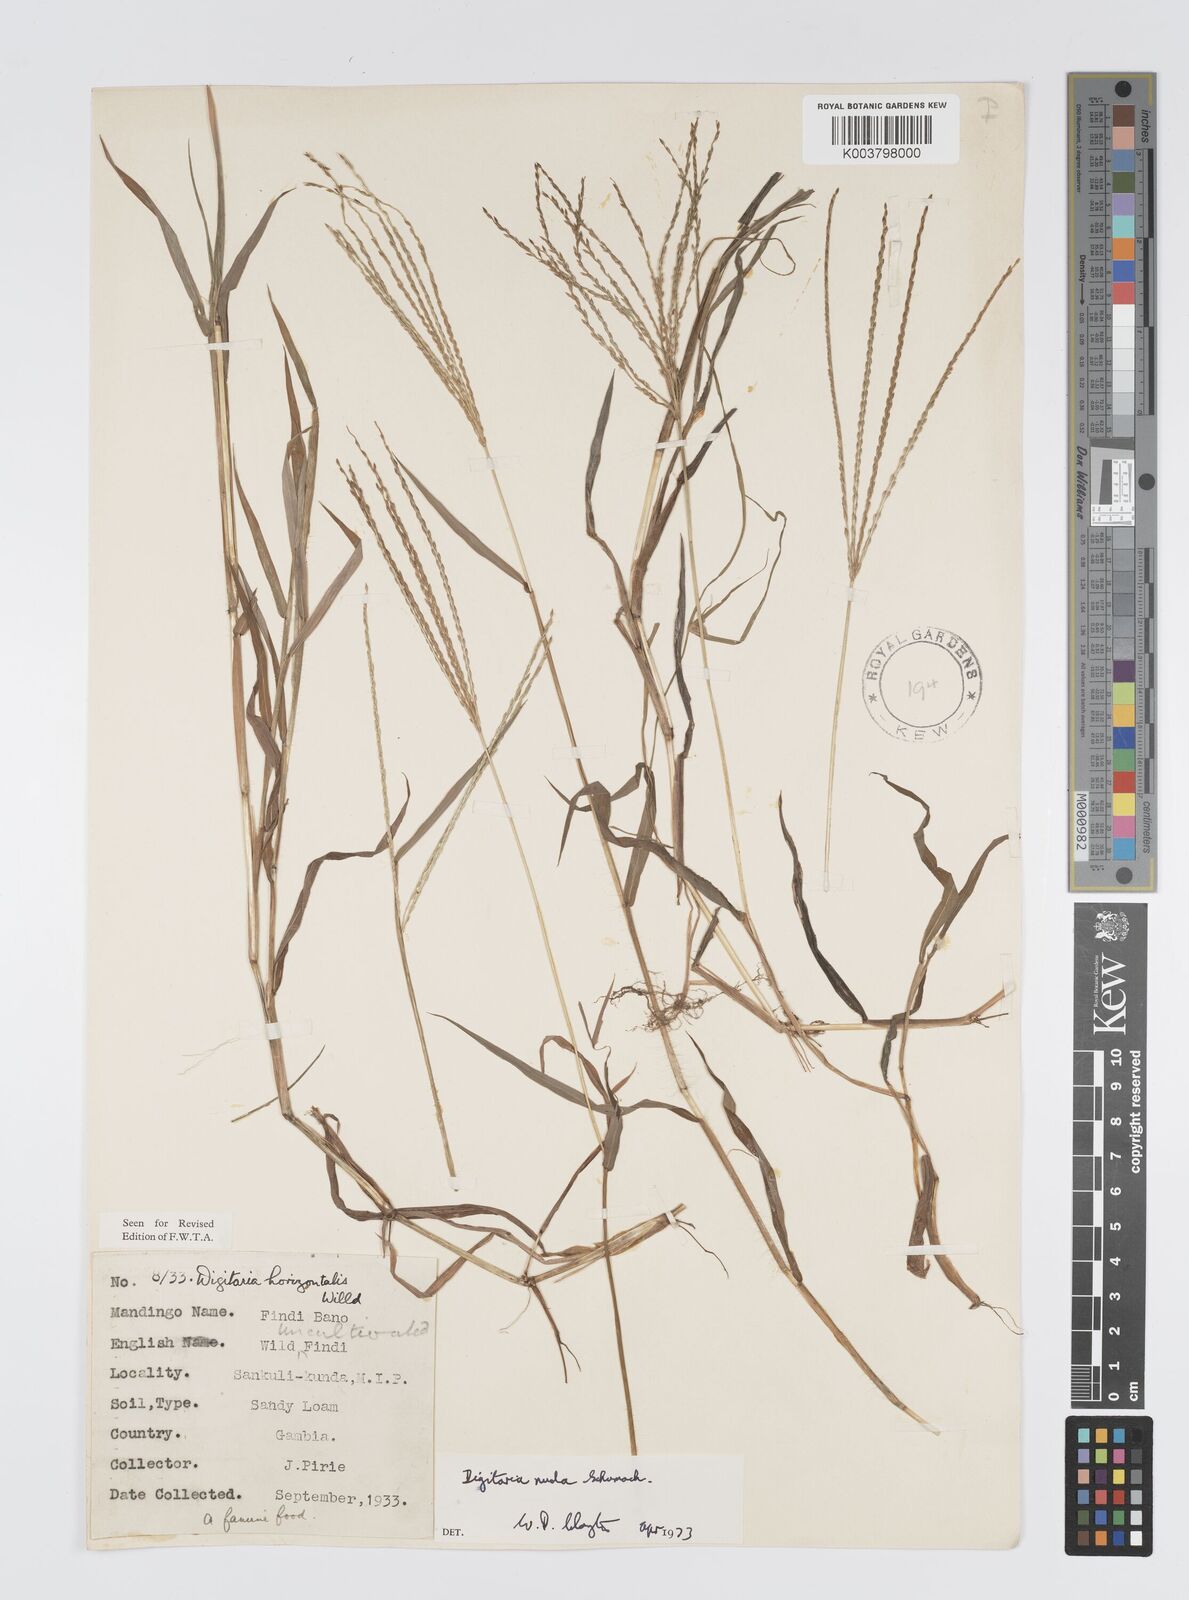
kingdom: Plantae
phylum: Tracheophyta
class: Liliopsida
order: Poales
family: Poaceae
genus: Digitaria
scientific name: Digitaria nuda
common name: Naked crabgrass
